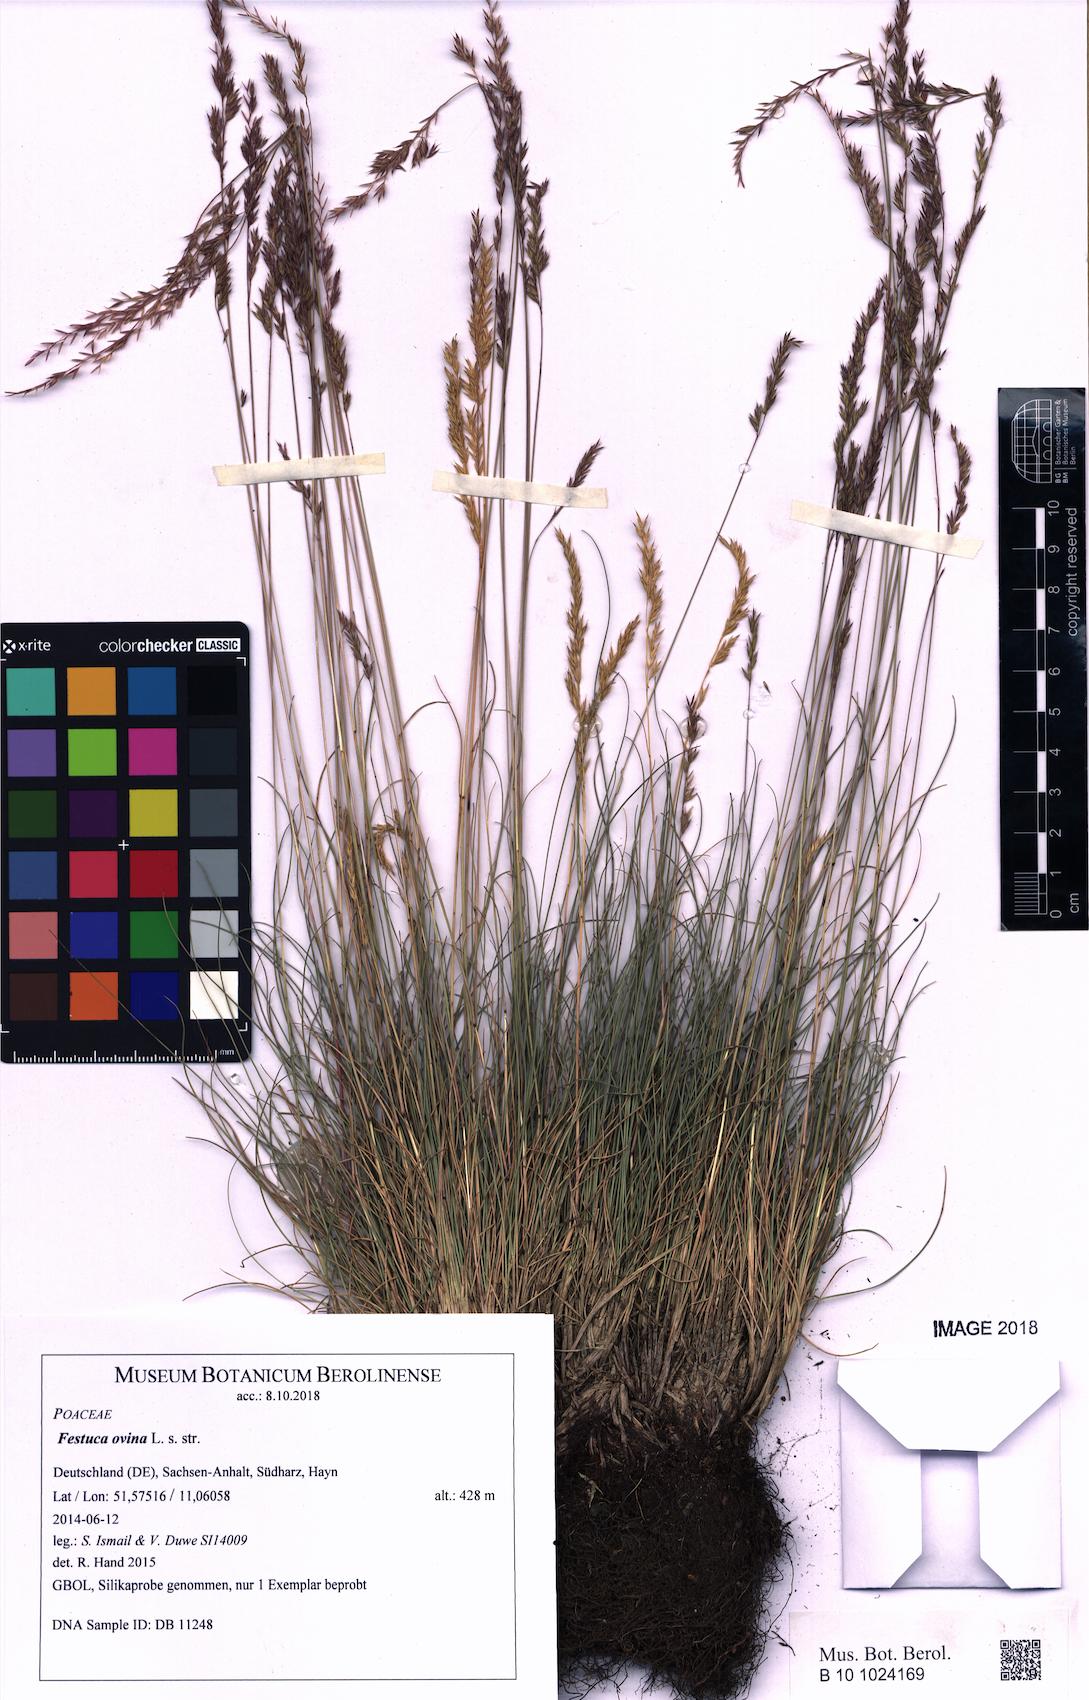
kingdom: Plantae
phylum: Tracheophyta
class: Liliopsida
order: Poales
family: Poaceae
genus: Festuca
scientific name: Festuca ovina
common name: Sheep fescue
